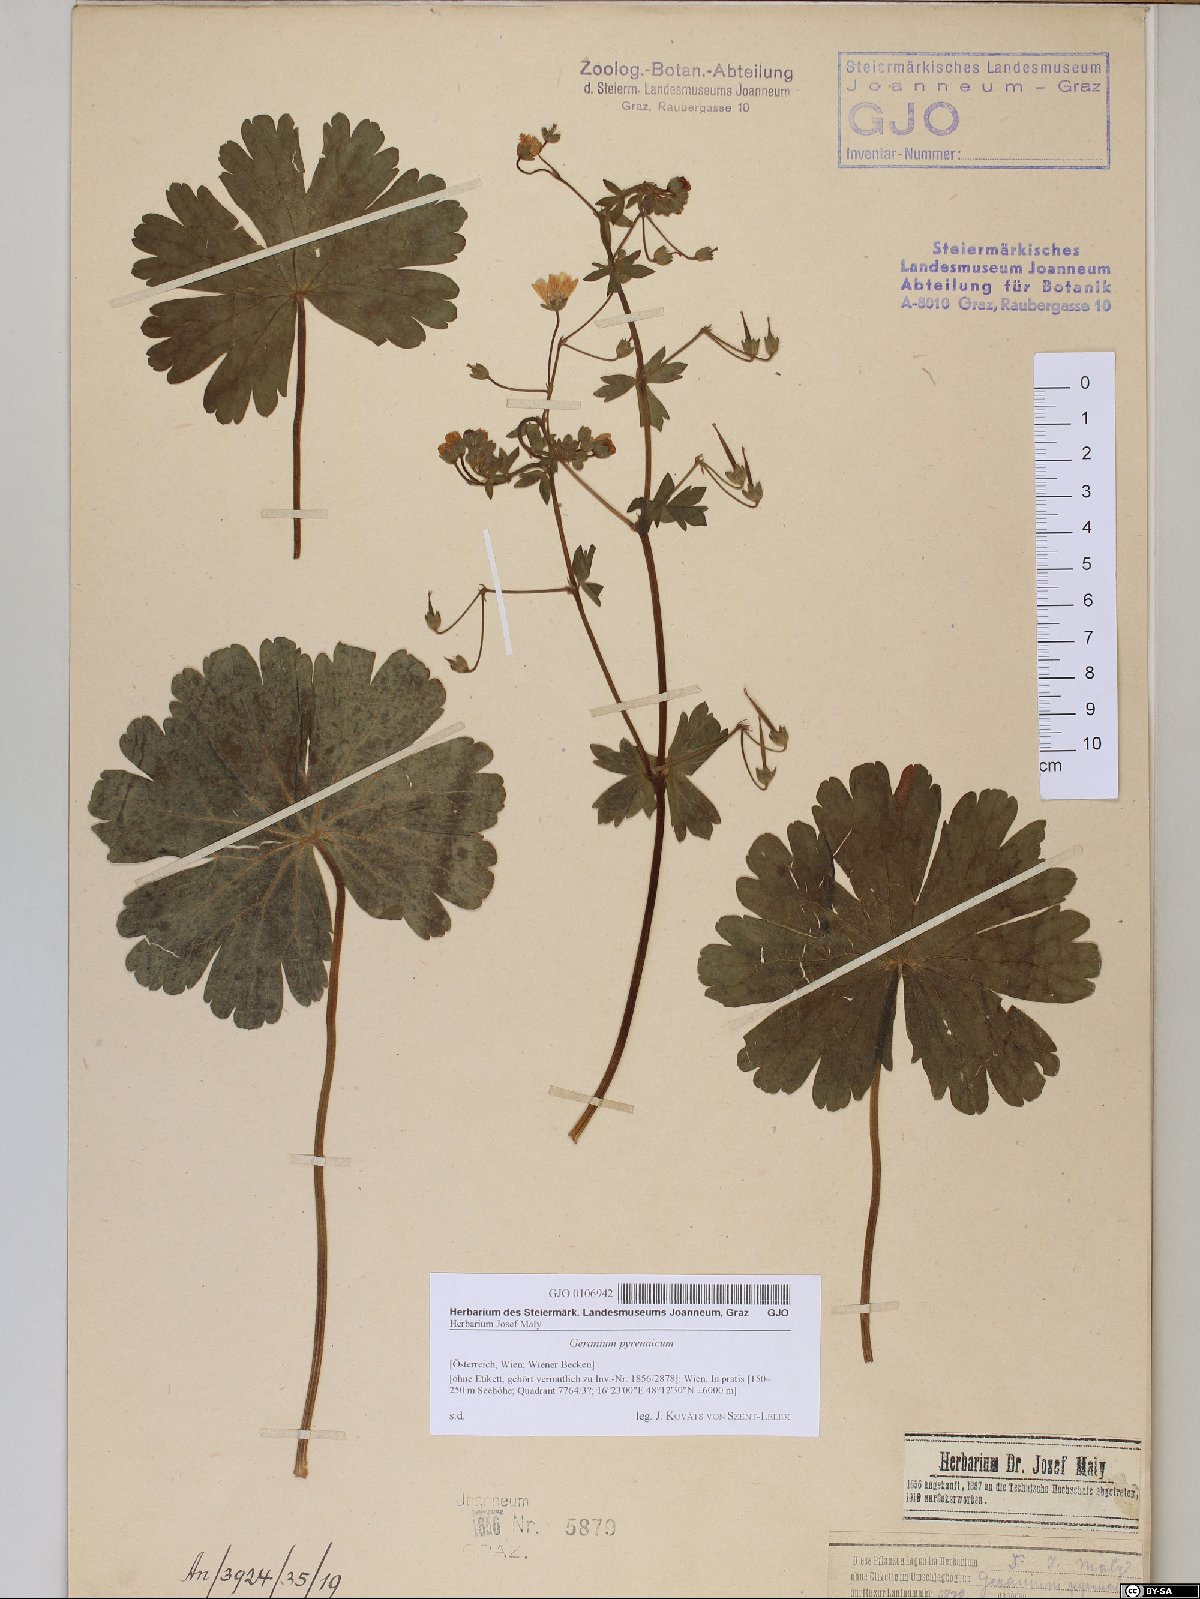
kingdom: Plantae
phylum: Tracheophyta
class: Magnoliopsida
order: Geraniales
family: Geraniaceae
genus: Geranium
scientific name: Geranium pyrenaicum
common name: Hedgerow crane's-bill
